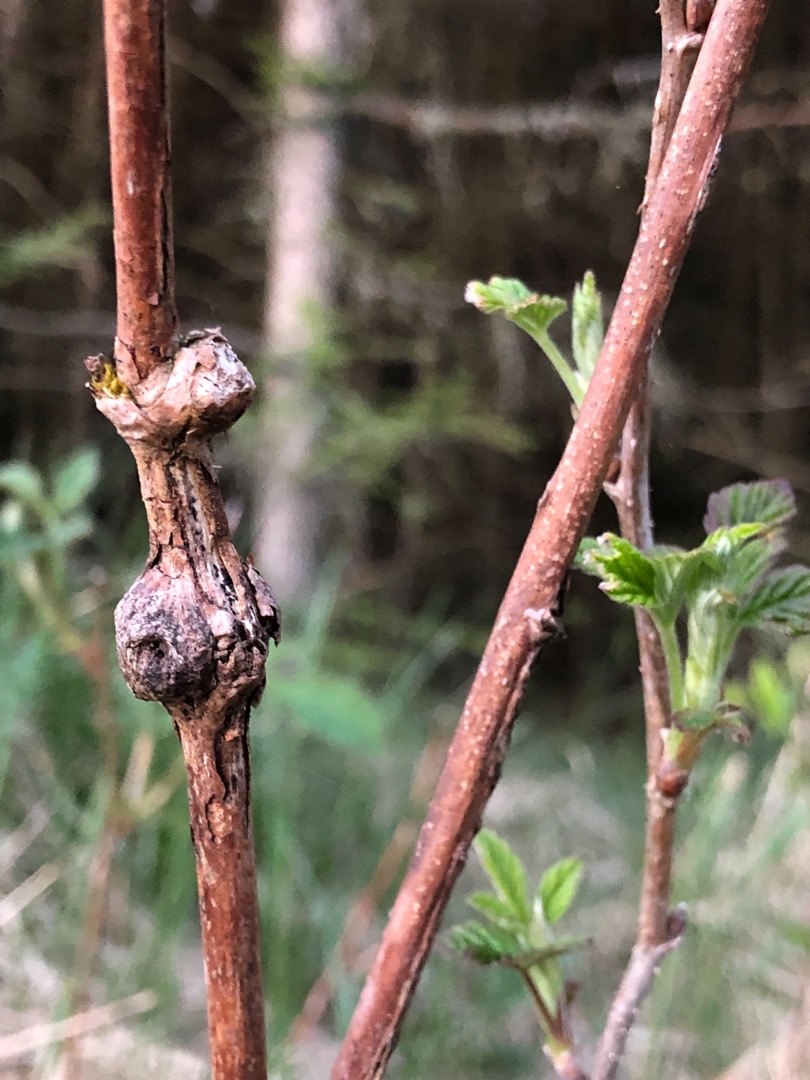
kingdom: Animalia
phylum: Arthropoda
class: Insecta
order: Diptera
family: Cecidomyiidae
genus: Lasioptera
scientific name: Lasioptera rubi
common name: Hindbærstængelgalmyg
